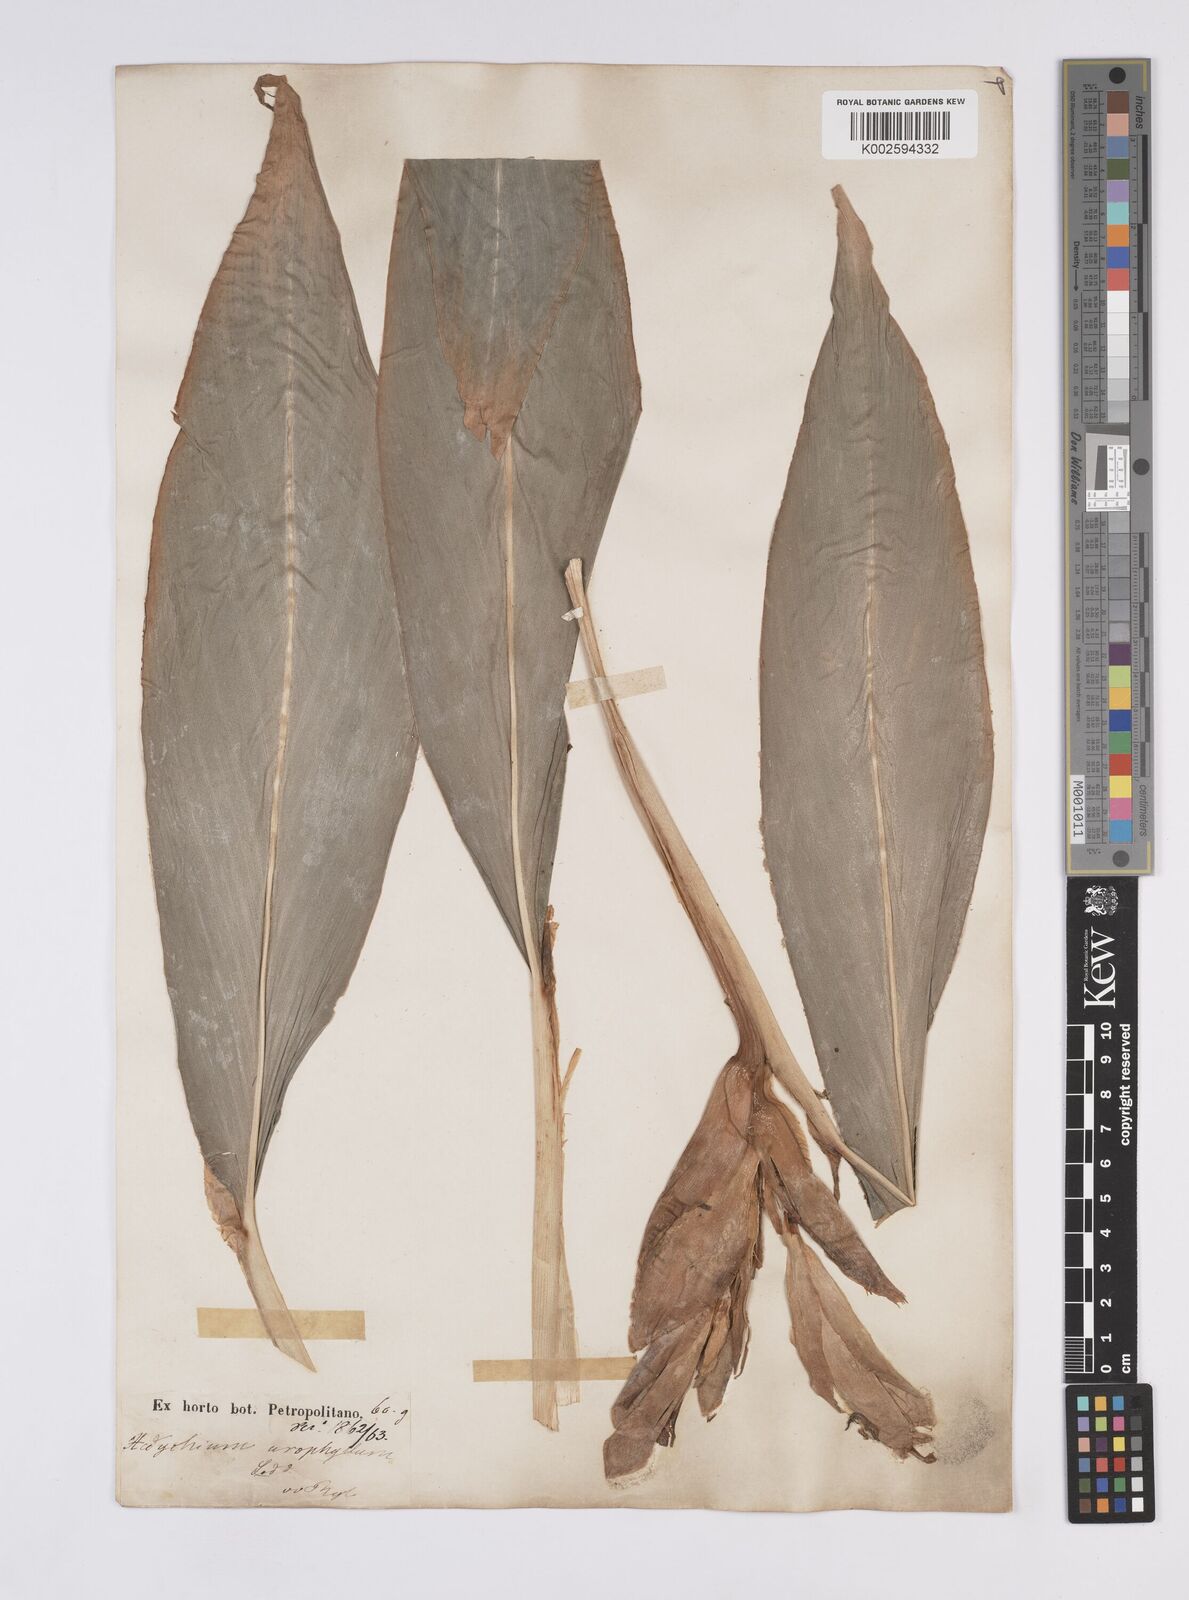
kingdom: Plantae
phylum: Tracheophyta
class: Liliopsida
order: Zingiberales
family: Zingiberaceae
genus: Hedychium
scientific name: Hedychium flavum
